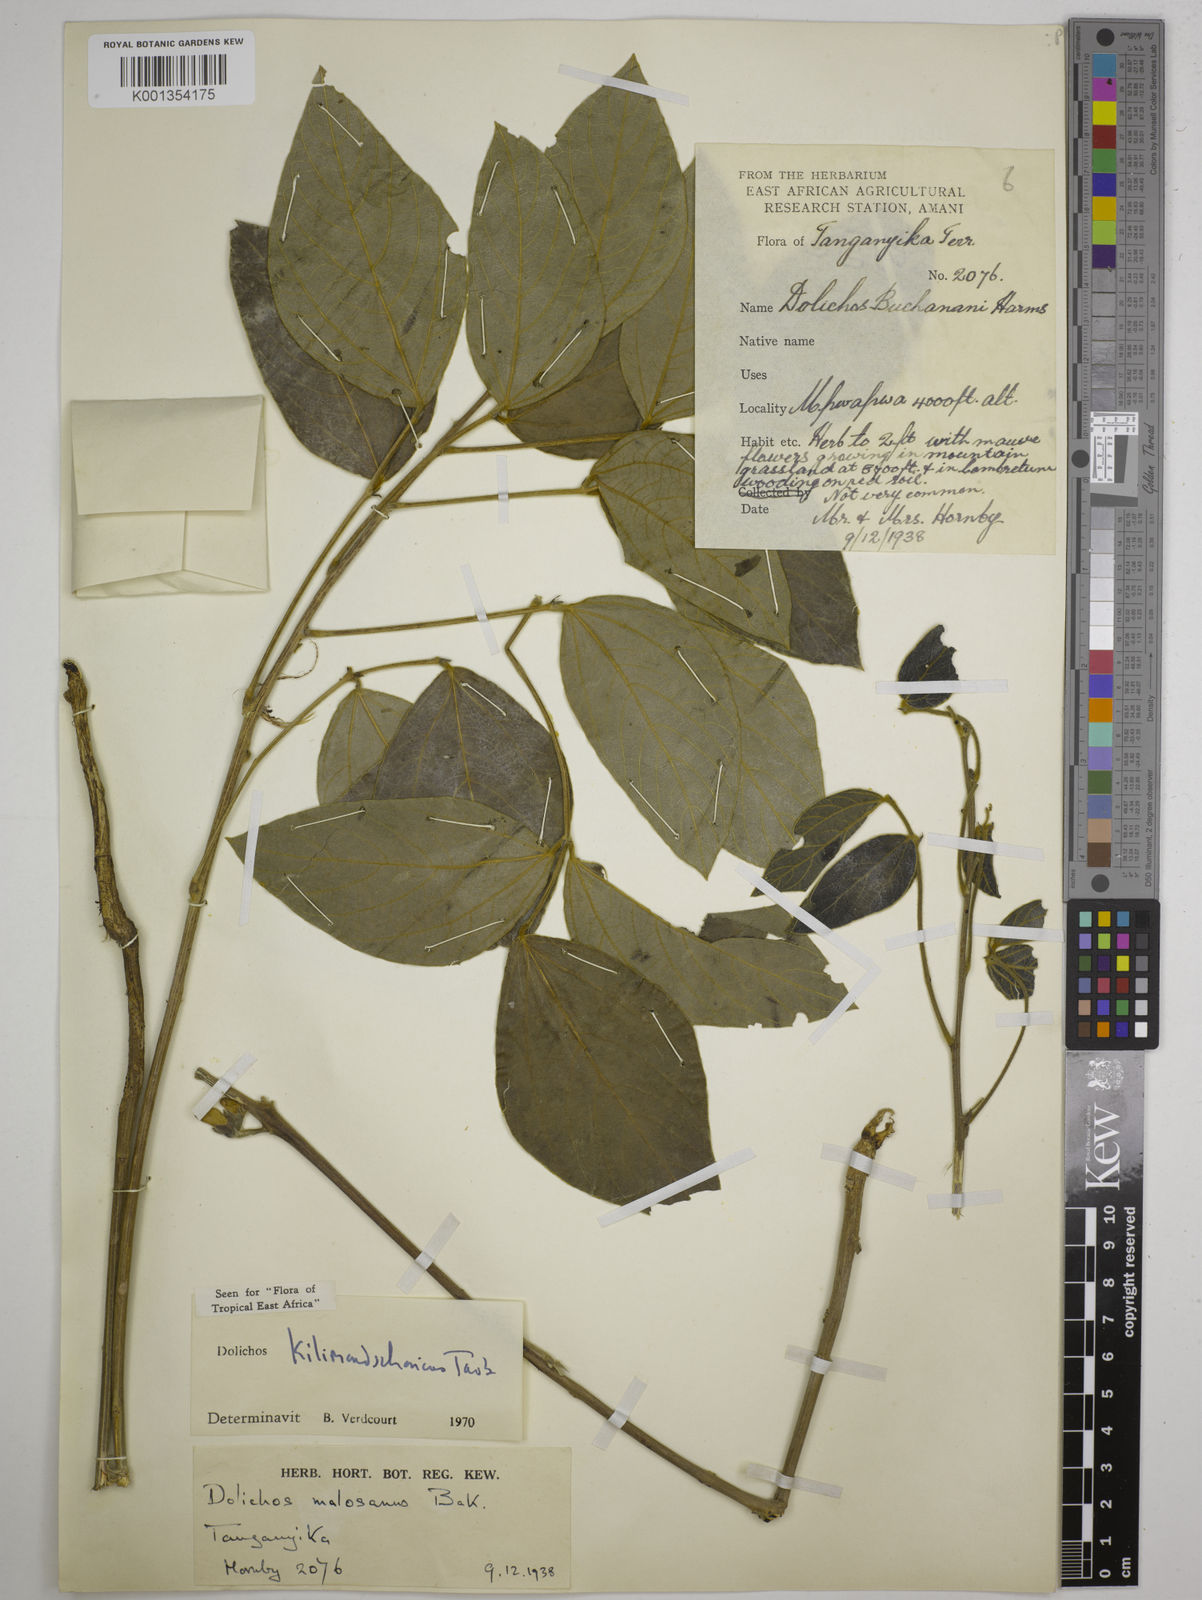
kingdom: Plantae
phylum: Tracheophyta
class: Magnoliopsida
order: Fabales
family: Fabaceae
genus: Dolichos
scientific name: Dolichos kilimandscharicus
